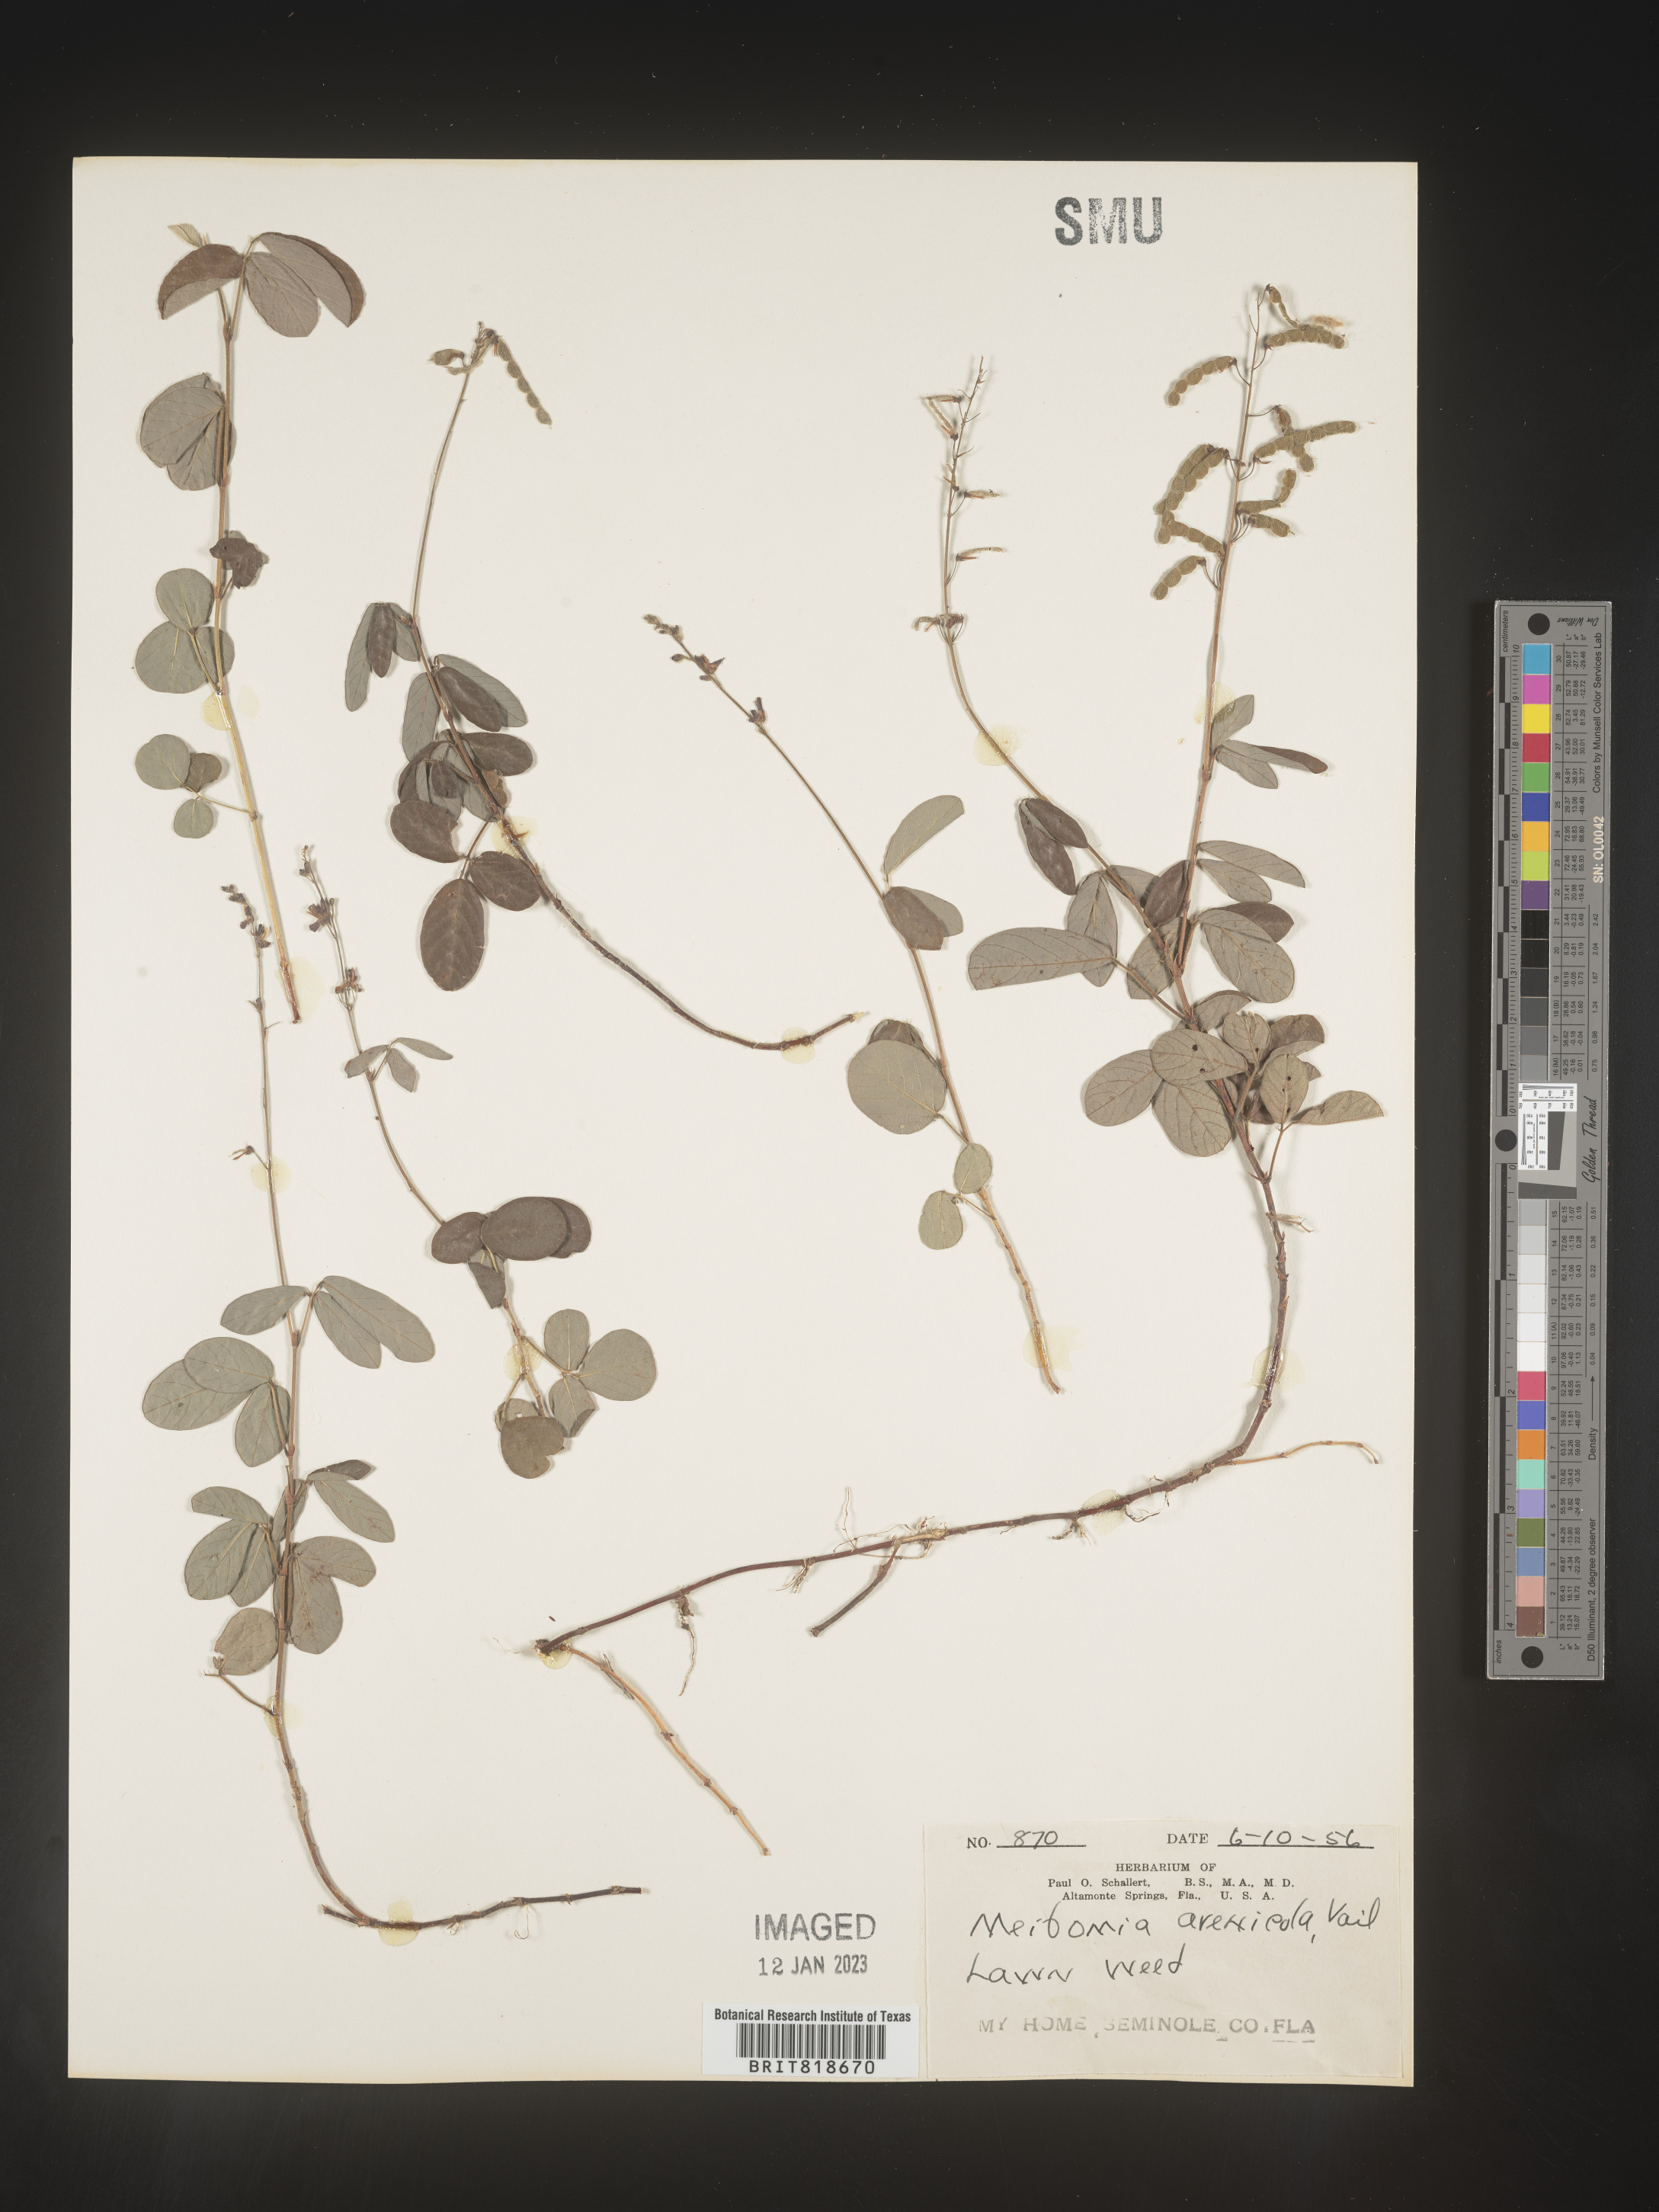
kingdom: Plantae
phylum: Tracheophyta
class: Magnoliopsida
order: Fabales
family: Fabaceae
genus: Desmodium
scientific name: Desmodium
